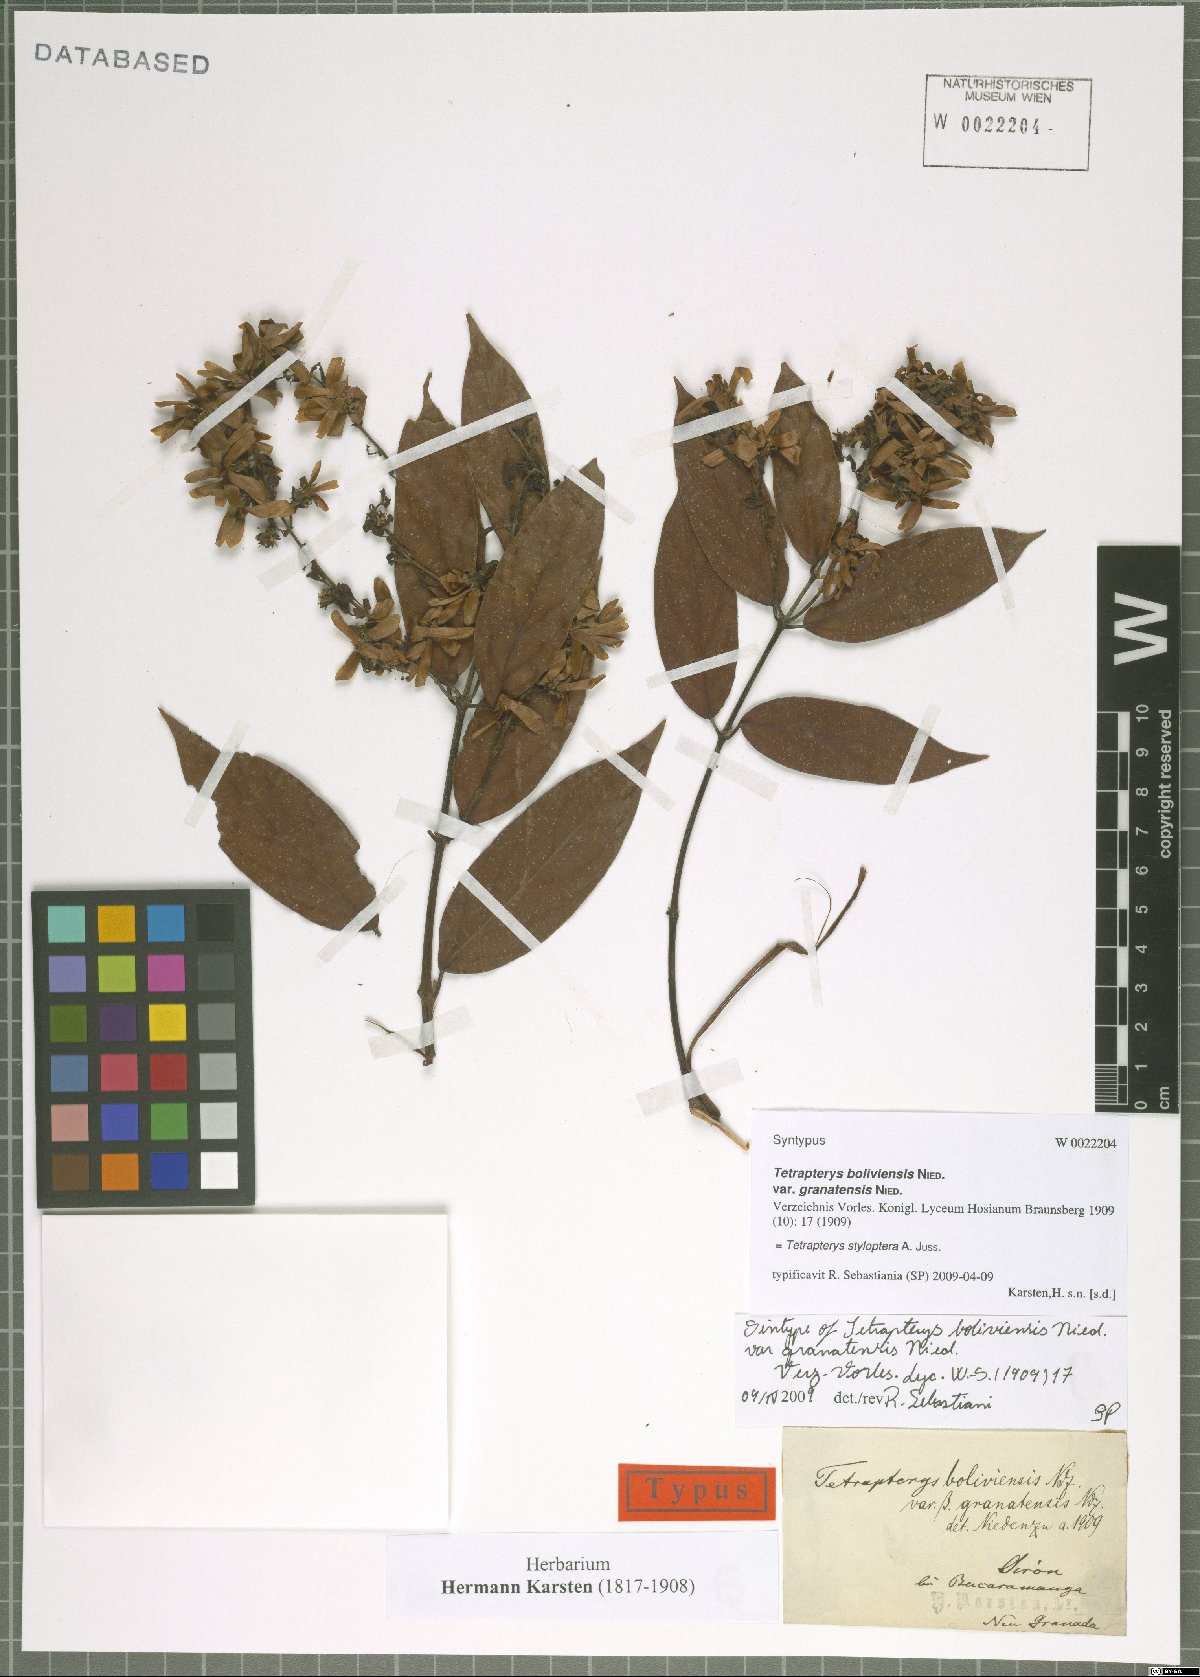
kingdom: Plantae
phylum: Tracheophyta
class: Magnoliopsida
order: Malpighiales
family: Malpighiaceae
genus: Glicophyllum
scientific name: Glicophyllum stylopterum
